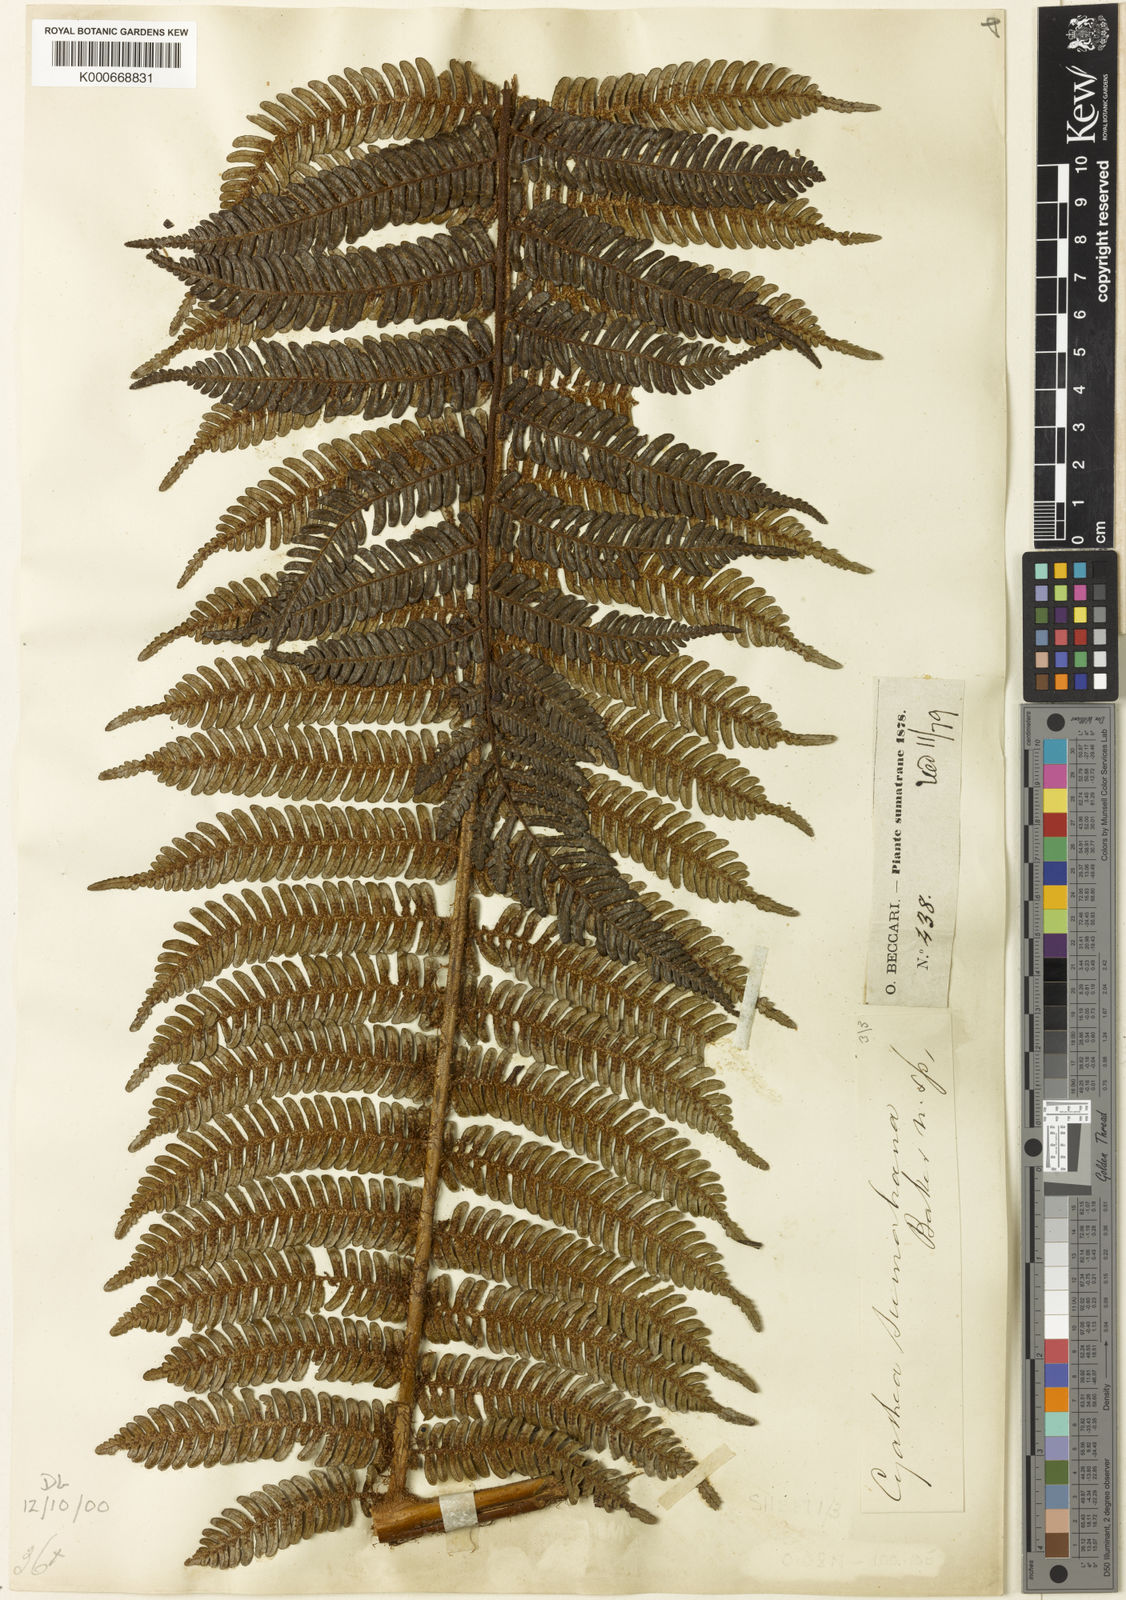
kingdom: Plantae
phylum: Tracheophyta
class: Polypodiopsida
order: Cyatheales
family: Cyatheaceae
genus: Alsophila
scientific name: Alsophila sumatrana
